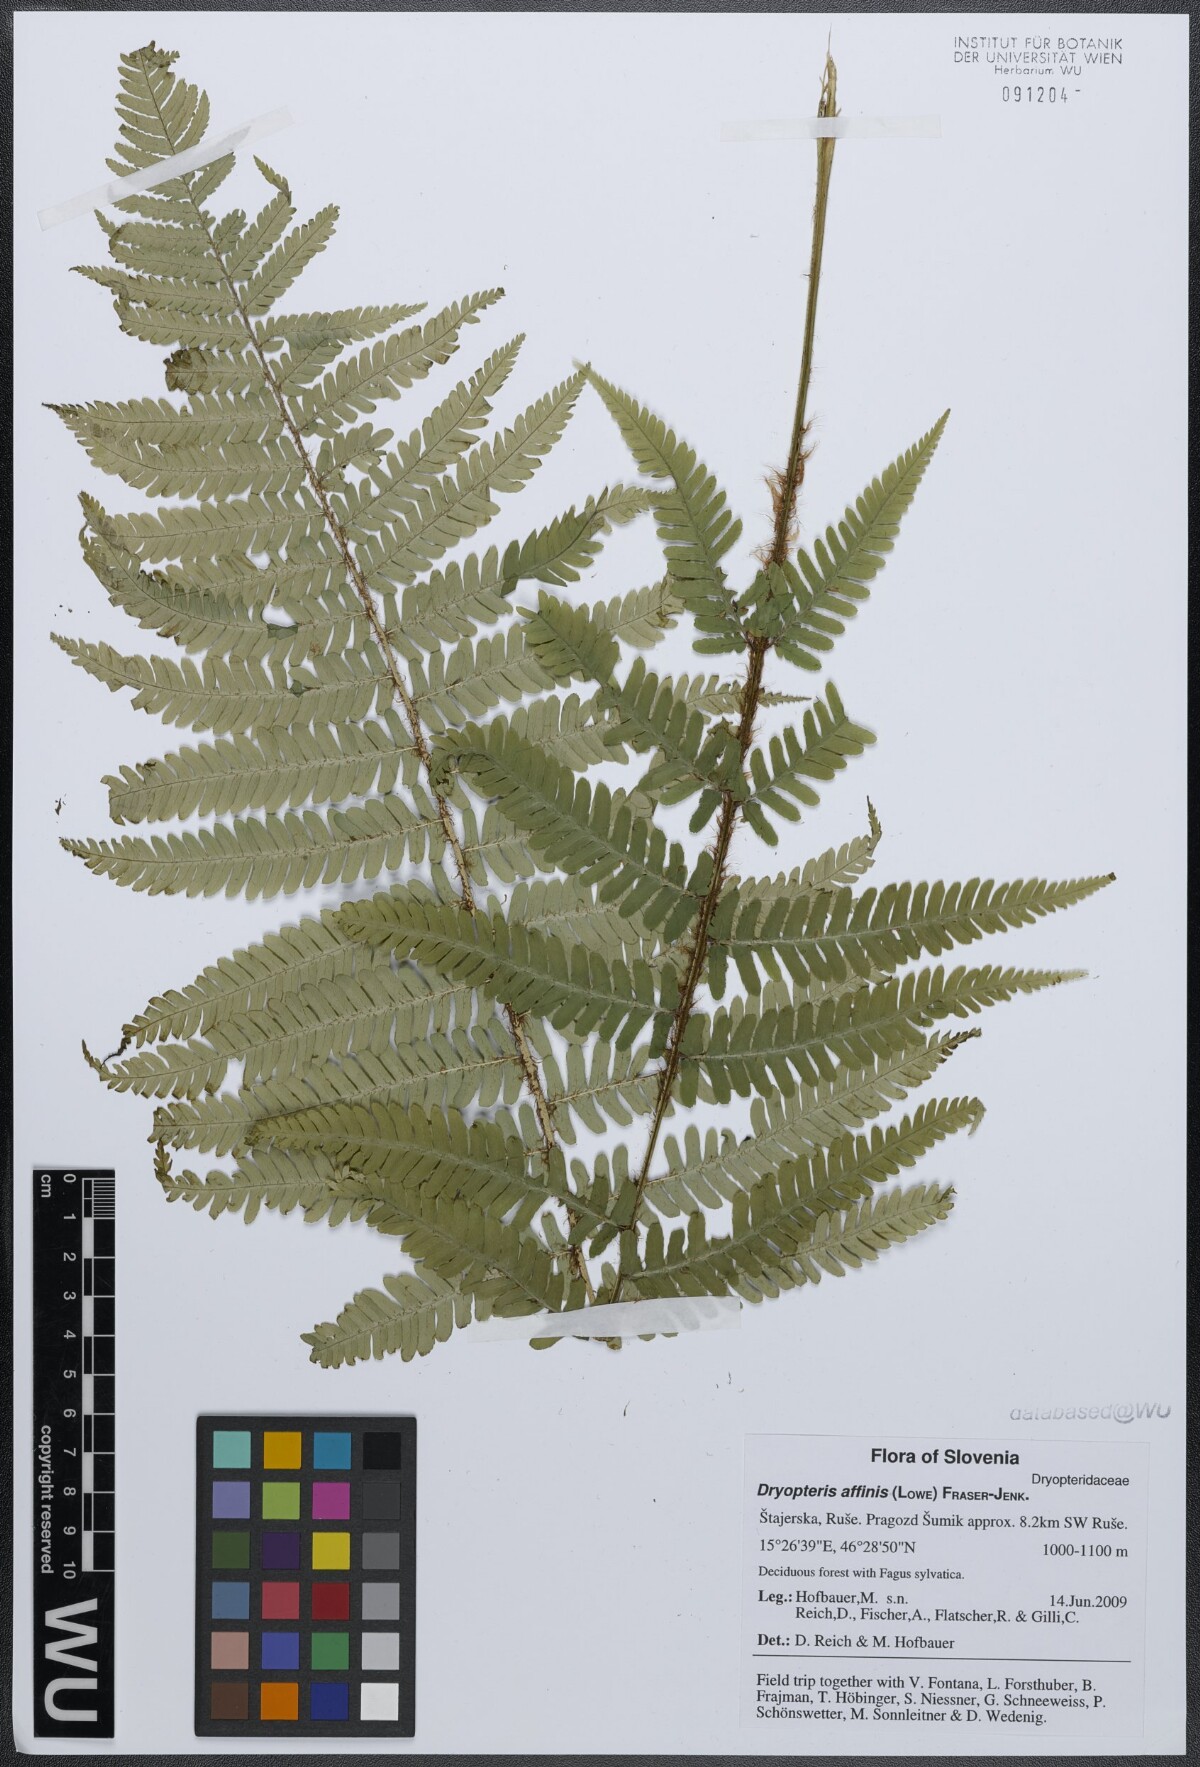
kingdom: Plantae
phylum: Tracheophyta
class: Polypodiopsida
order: Polypodiales
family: Dryopteridaceae
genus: Dryopteris
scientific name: Dryopteris affinis
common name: Scaly male fern
